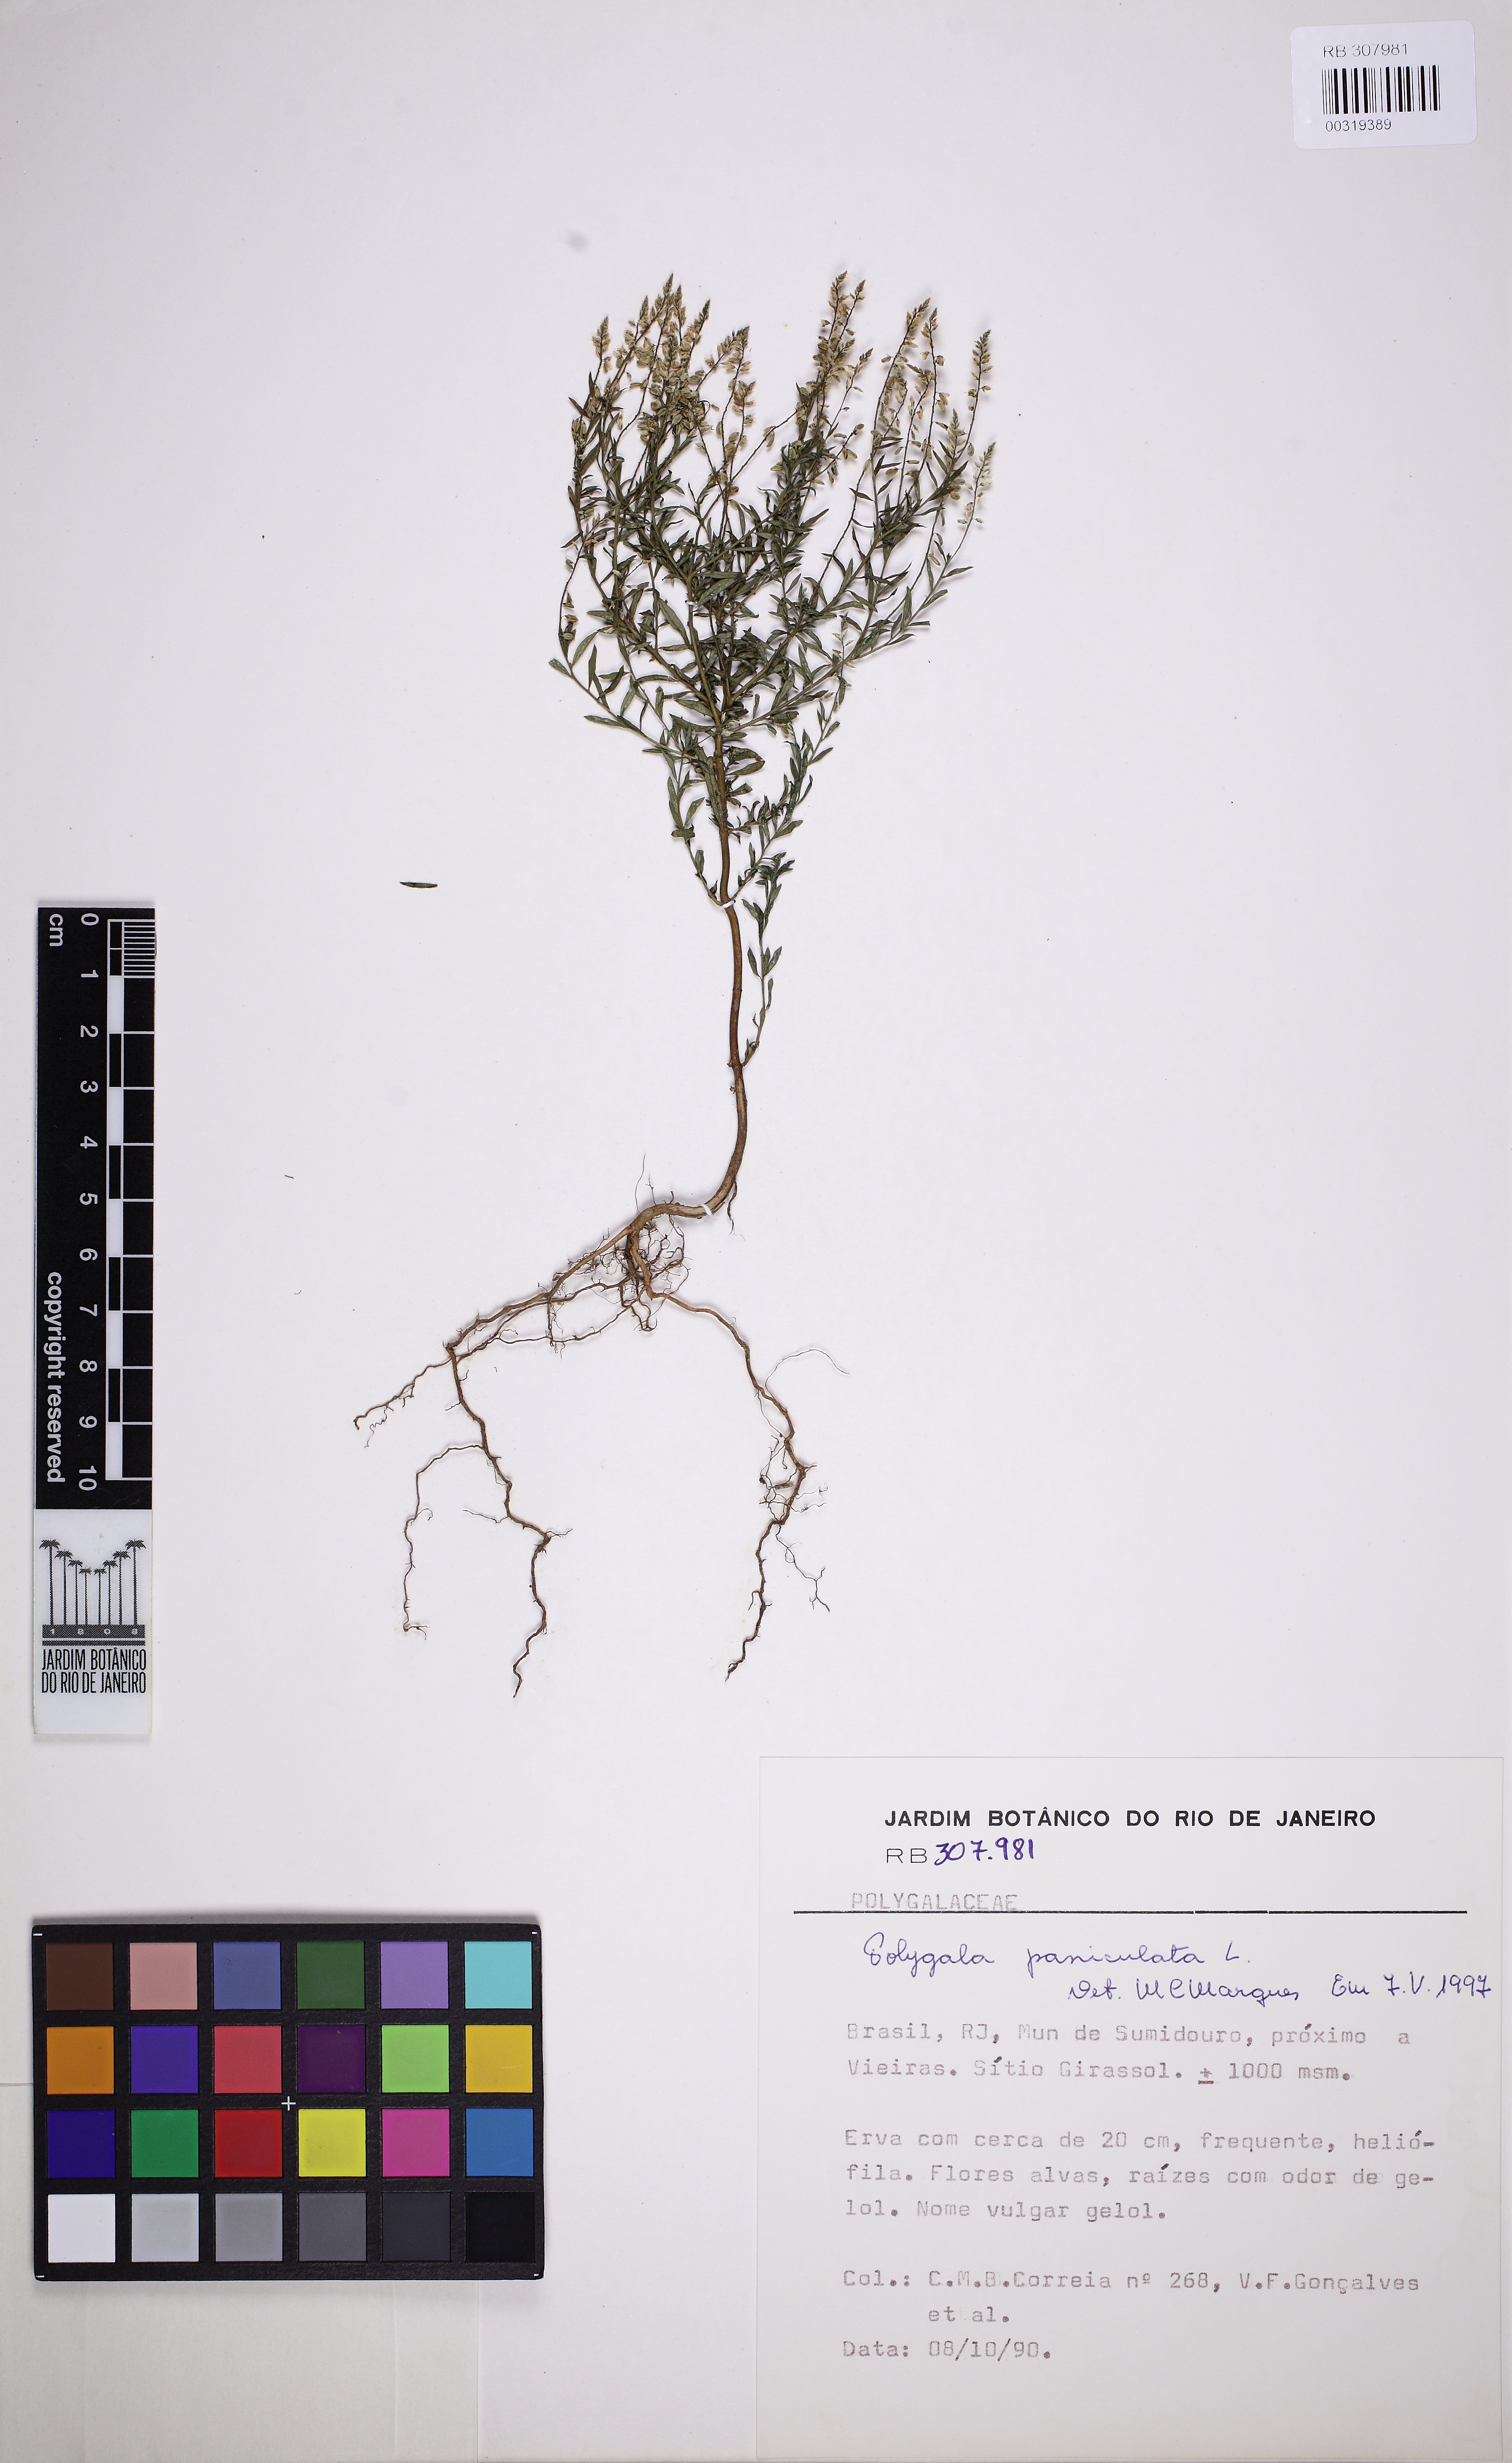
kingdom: Plantae
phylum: Tracheophyta
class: Magnoliopsida
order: Fabales
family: Polygalaceae
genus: Polygala
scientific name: Polygala paniculata
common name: Orosne
